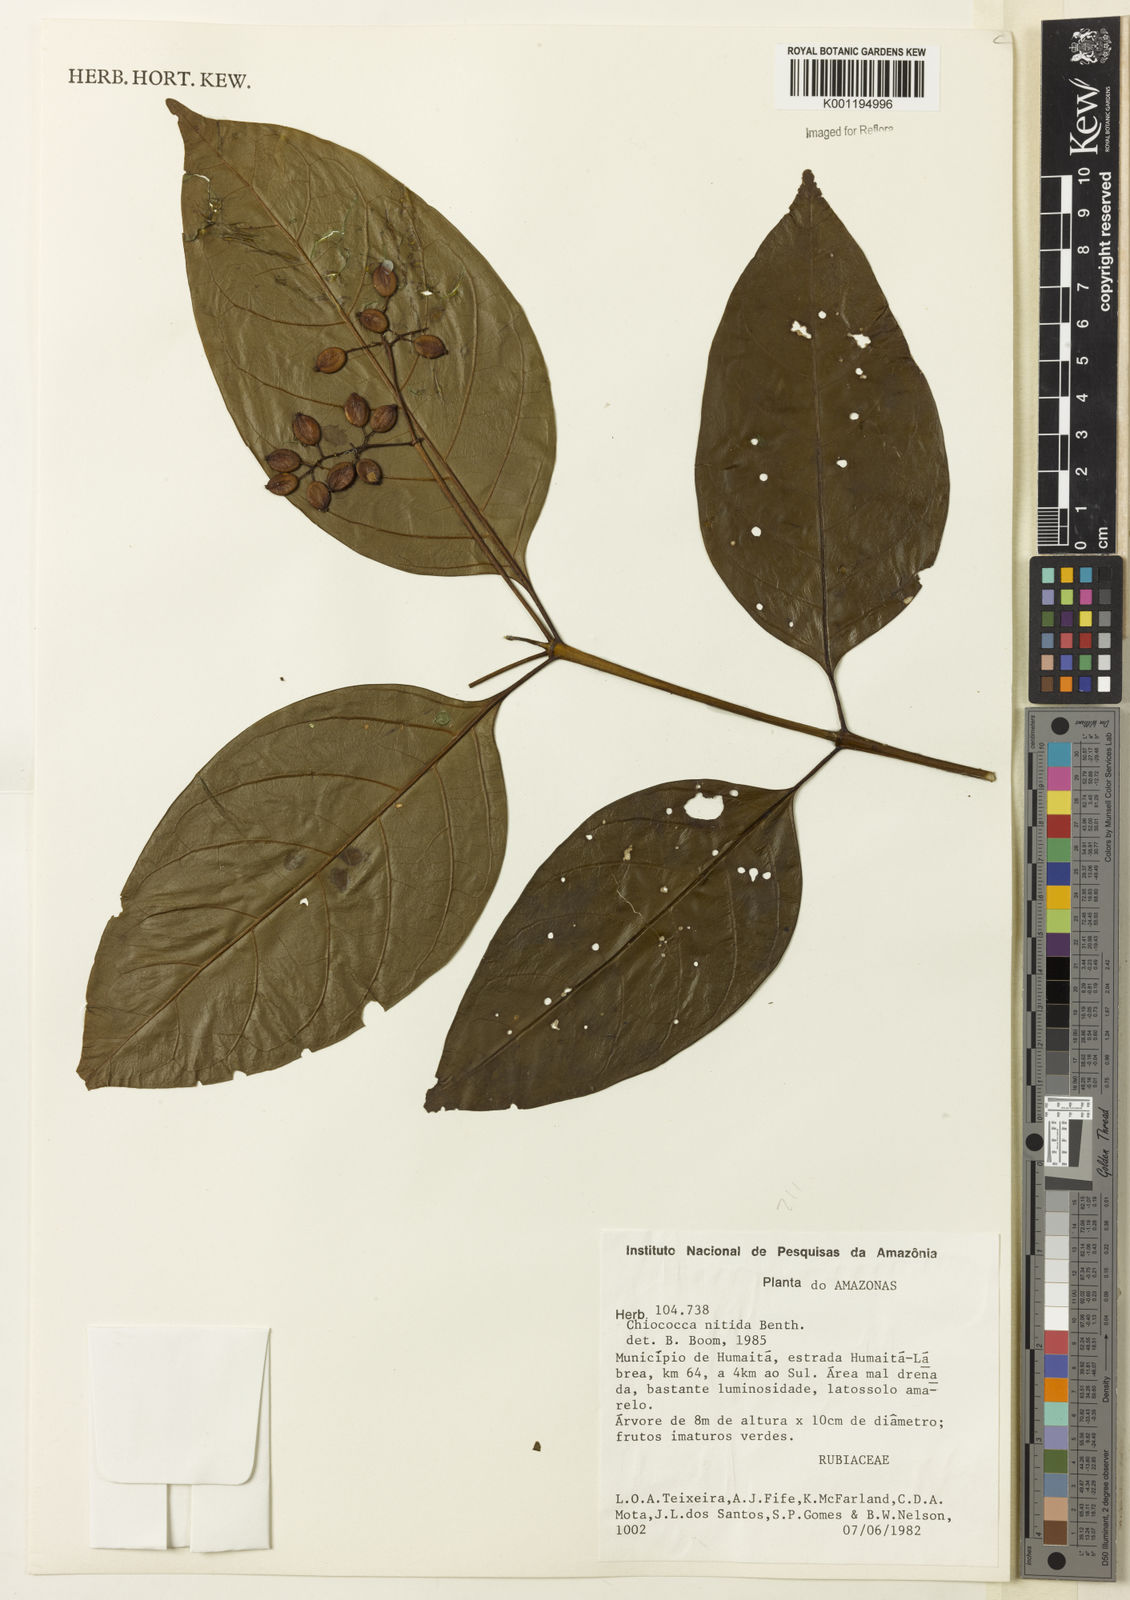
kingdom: Plantae
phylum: Tracheophyta
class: Magnoliopsida
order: Gentianales
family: Rubiaceae
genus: Chiococca
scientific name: Chiococca nitida
